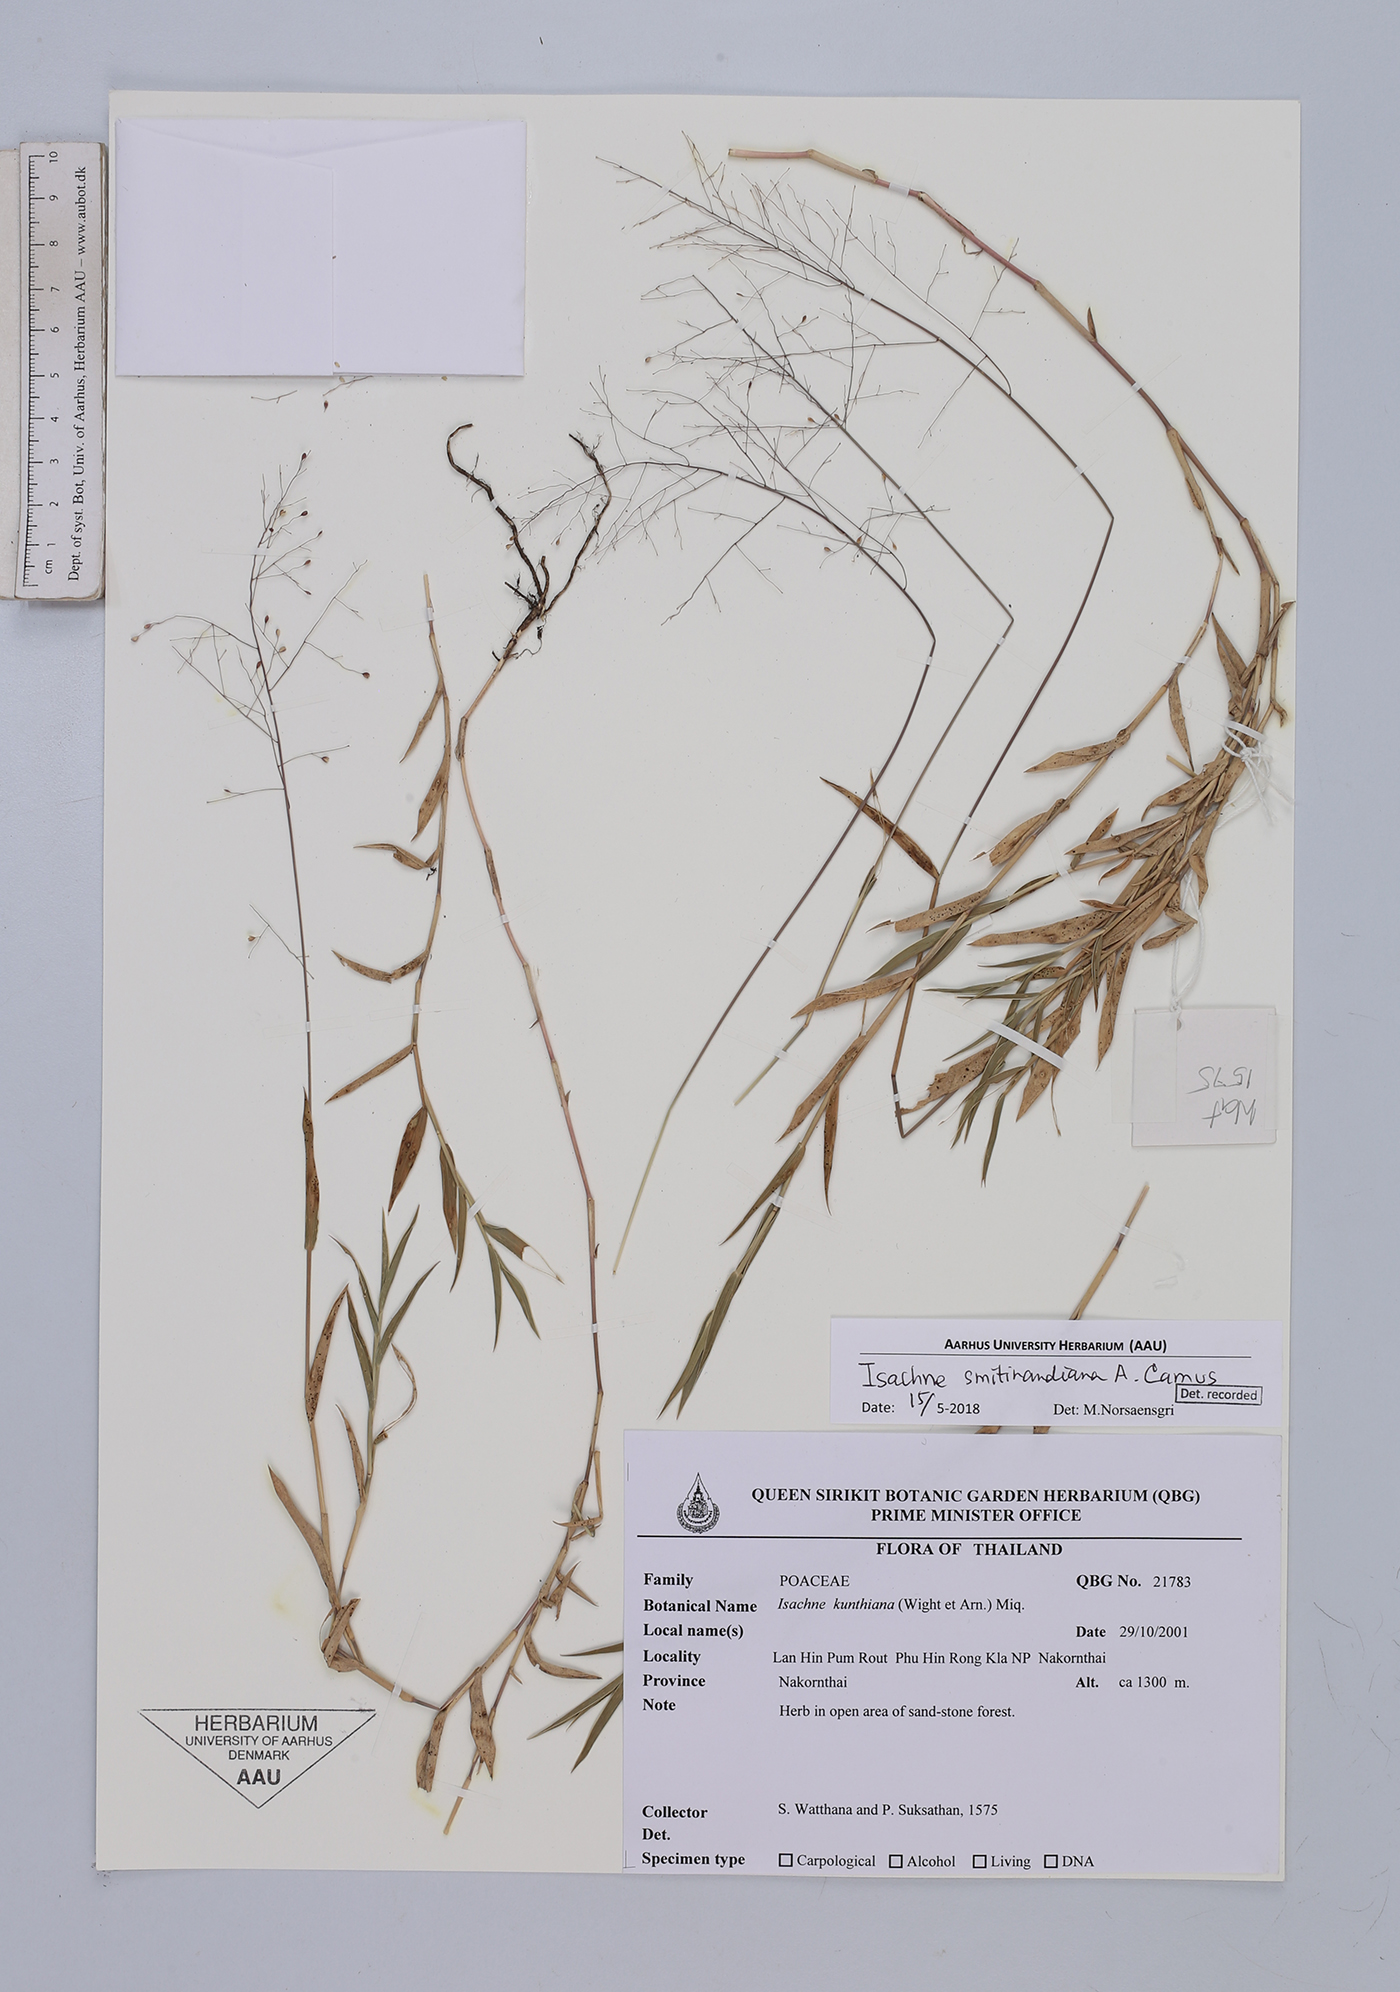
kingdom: Plantae
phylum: Tracheophyta
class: Liliopsida
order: Poales
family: Poaceae
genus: Isachne
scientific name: Isachne smitinandiana
